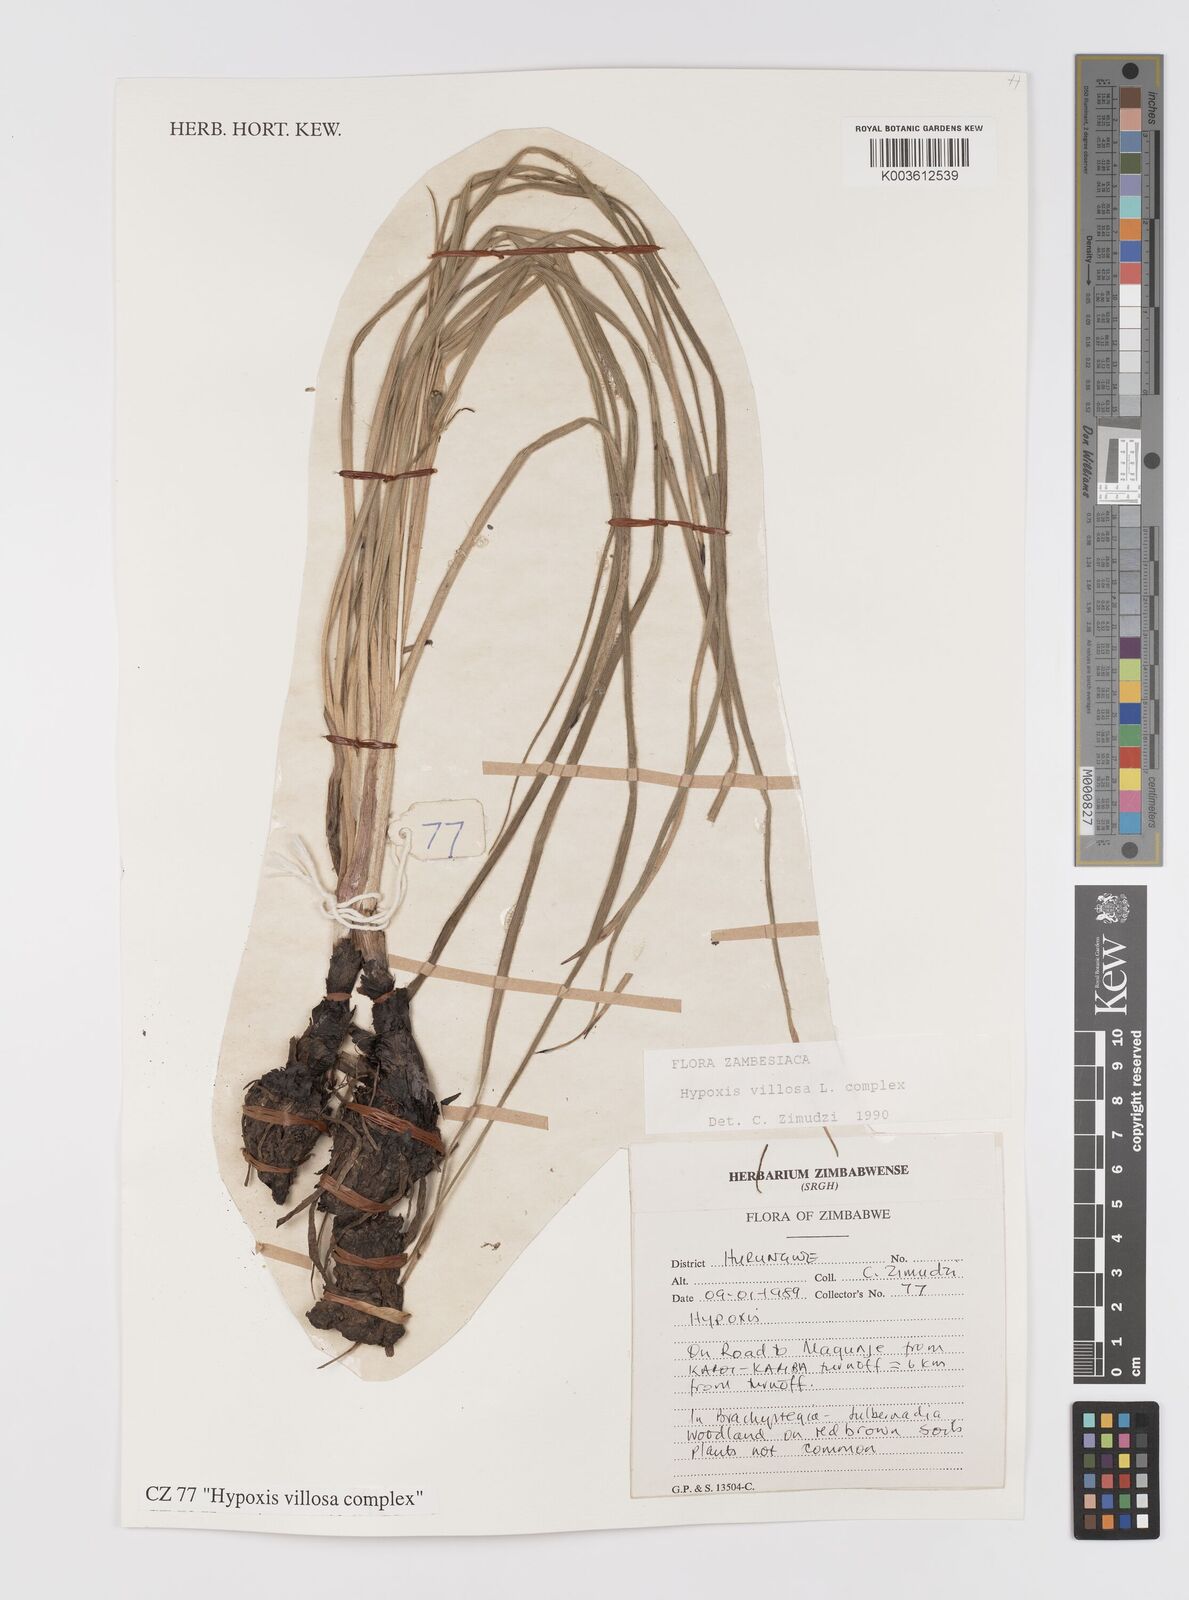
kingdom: Plantae
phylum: Tracheophyta
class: Liliopsida
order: Asparagales
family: Hypoxidaceae
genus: Hypoxis
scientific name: Hypoxis villosa
